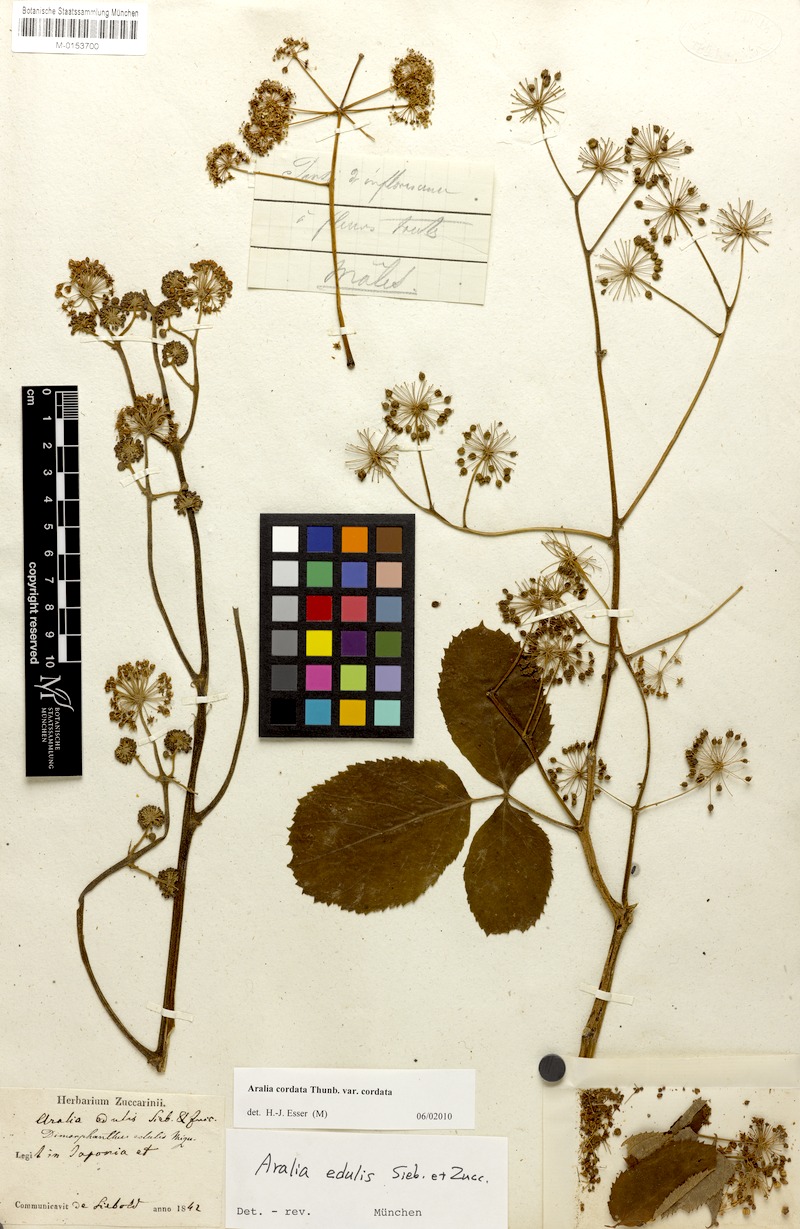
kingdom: Plantae
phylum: Tracheophyta
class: Magnoliopsida
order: Apiales
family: Araliaceae
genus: Aralia
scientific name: Aralia cordata
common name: Udo
